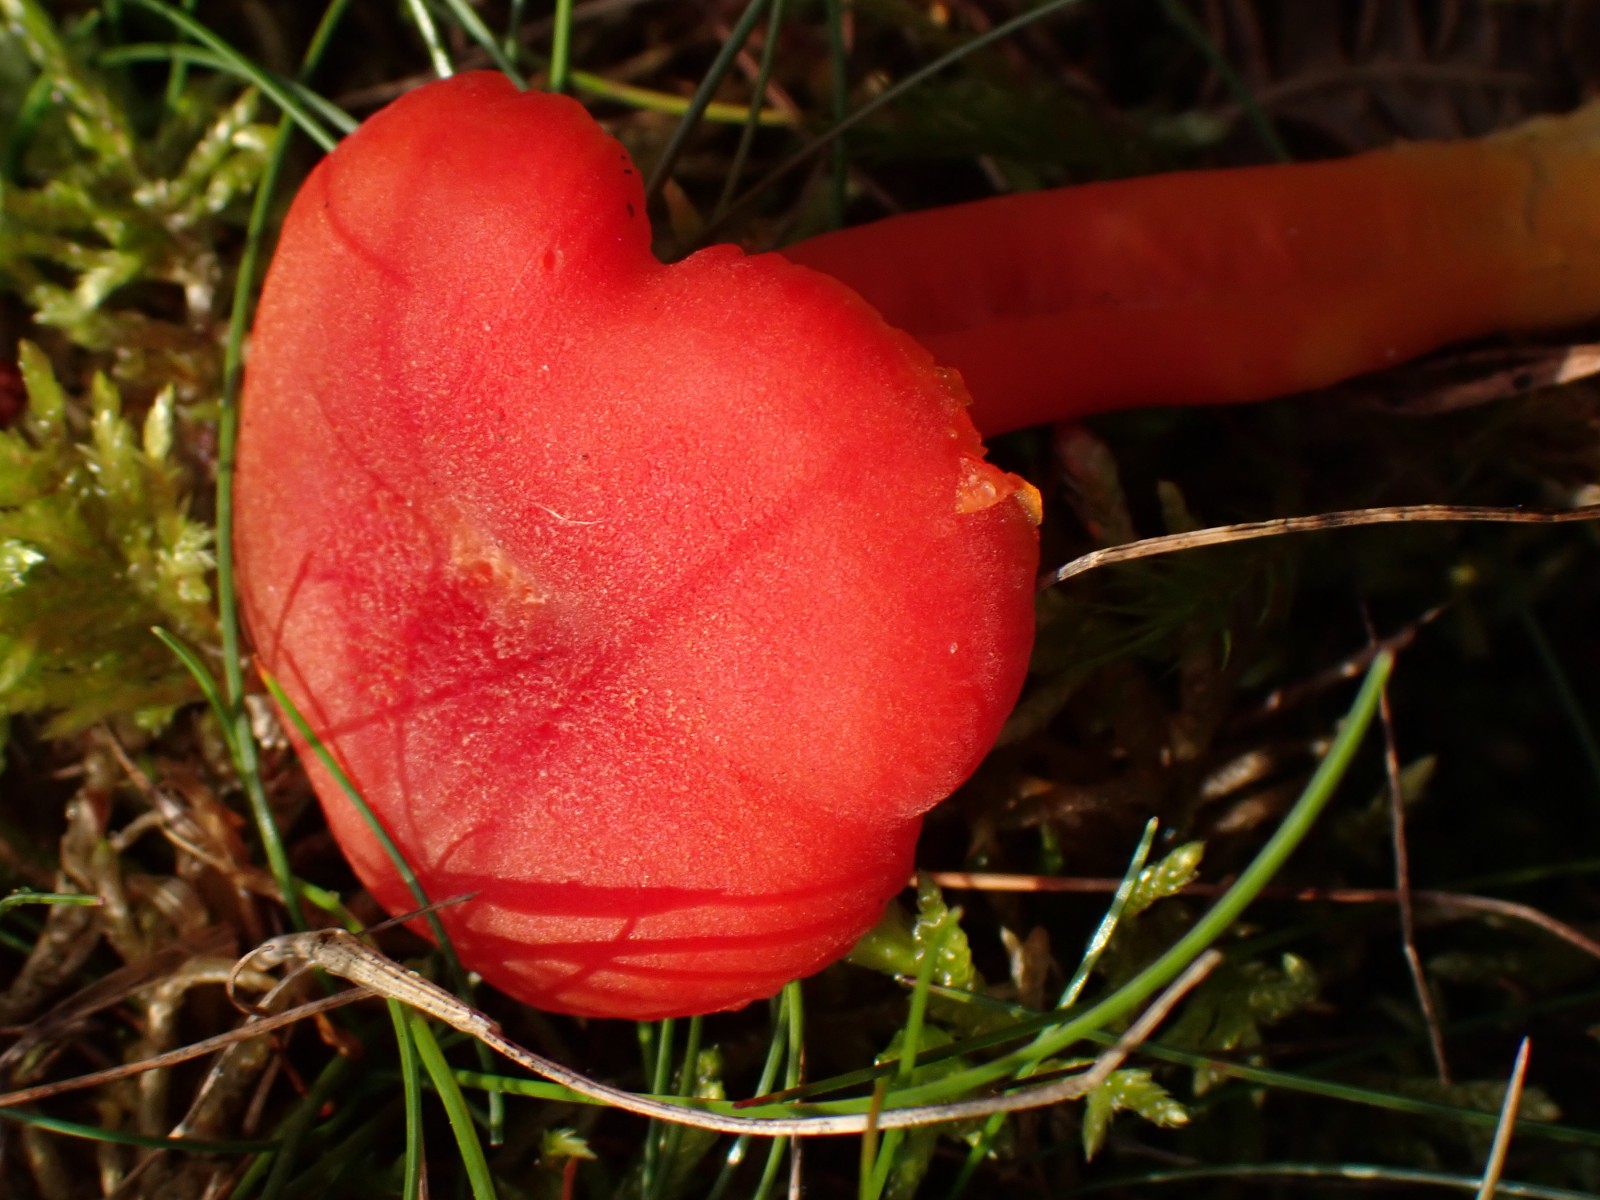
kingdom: Fungi
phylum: Basidiomycota
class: Agaricomycetes
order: Agaricales
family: Hygrophoraceae
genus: Hygrocybe
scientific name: Hygrocybe miniata
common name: mønje-vokshat
